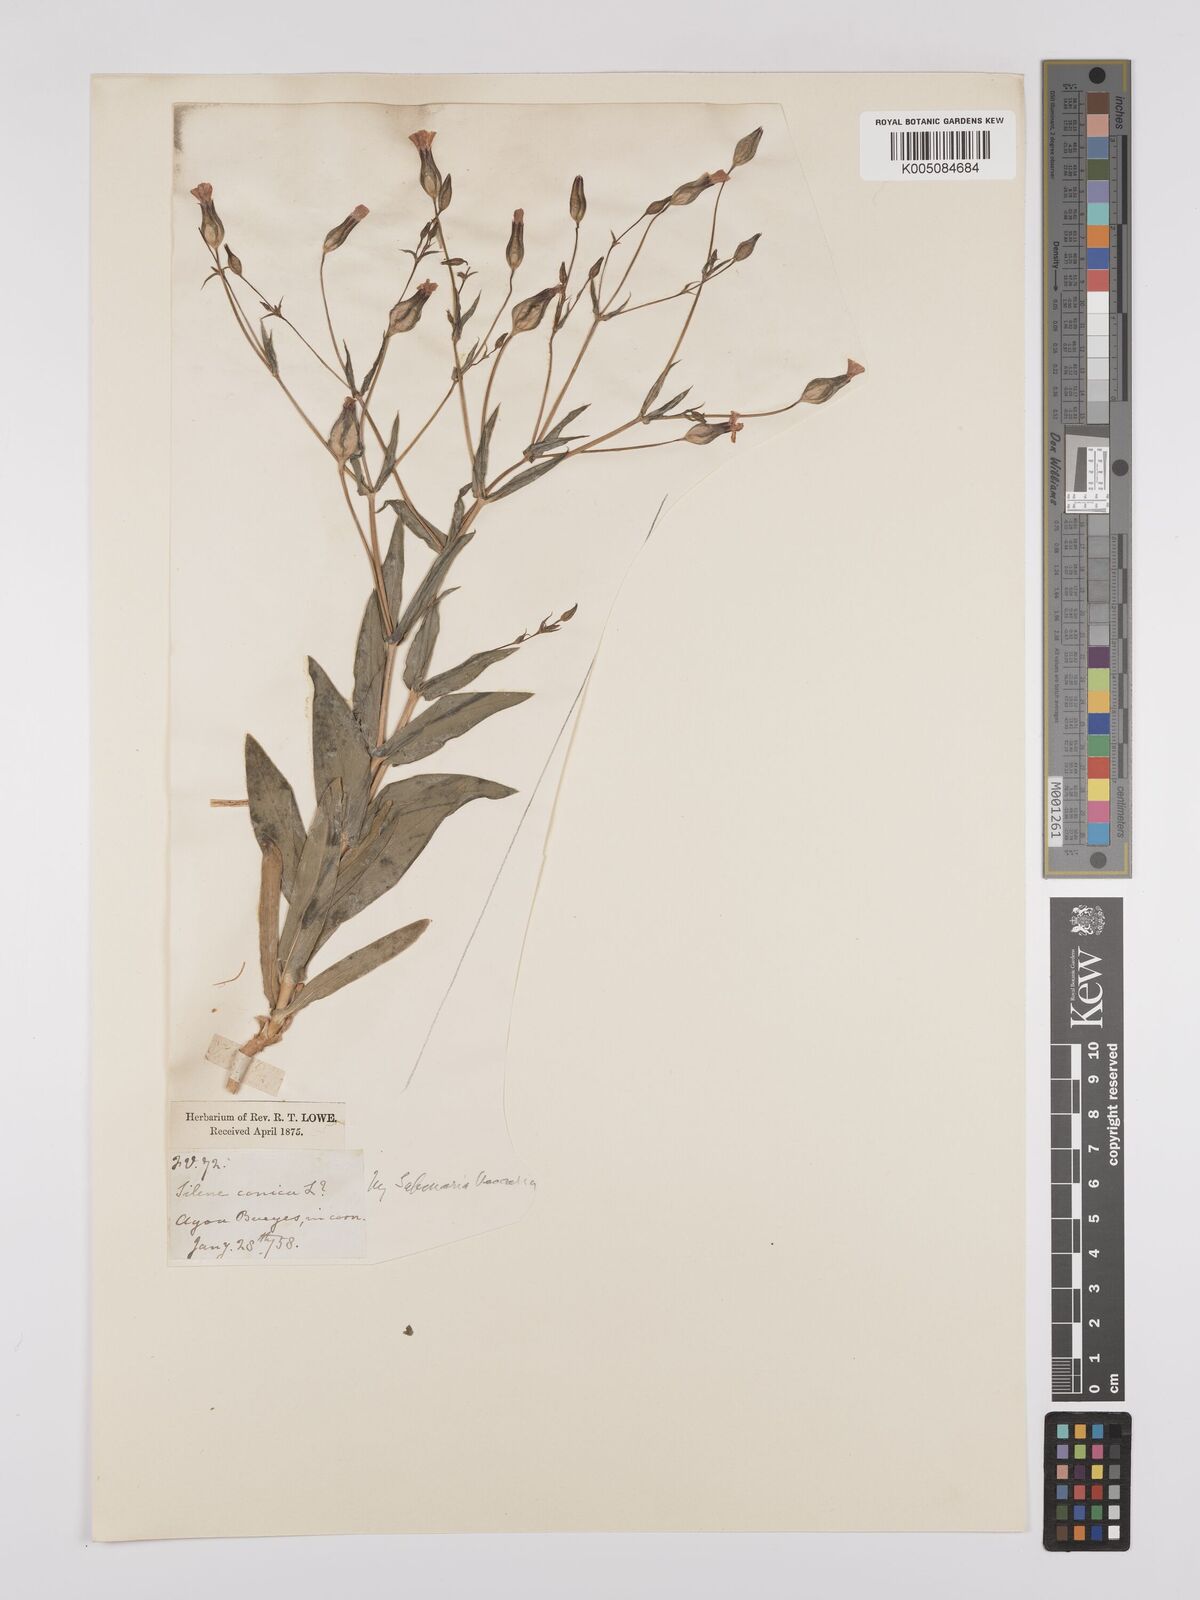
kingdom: Plantae
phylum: Tracheophyta
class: Magnoliopsida
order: Caryophyllales
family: Caryophyllaceae
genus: Gypsophila
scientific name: Gypsophila vaccaria
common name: Cow soapwort
